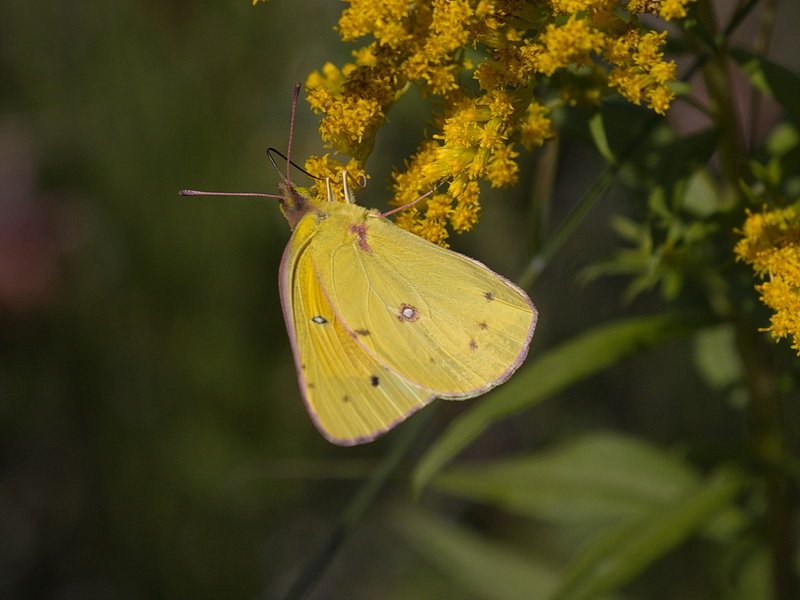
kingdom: Animalia
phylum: Arthropoda
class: Insecta
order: Lepidoptera
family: Pieridae
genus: Colias
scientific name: Colias eurytheme
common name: Orange Sulphur
